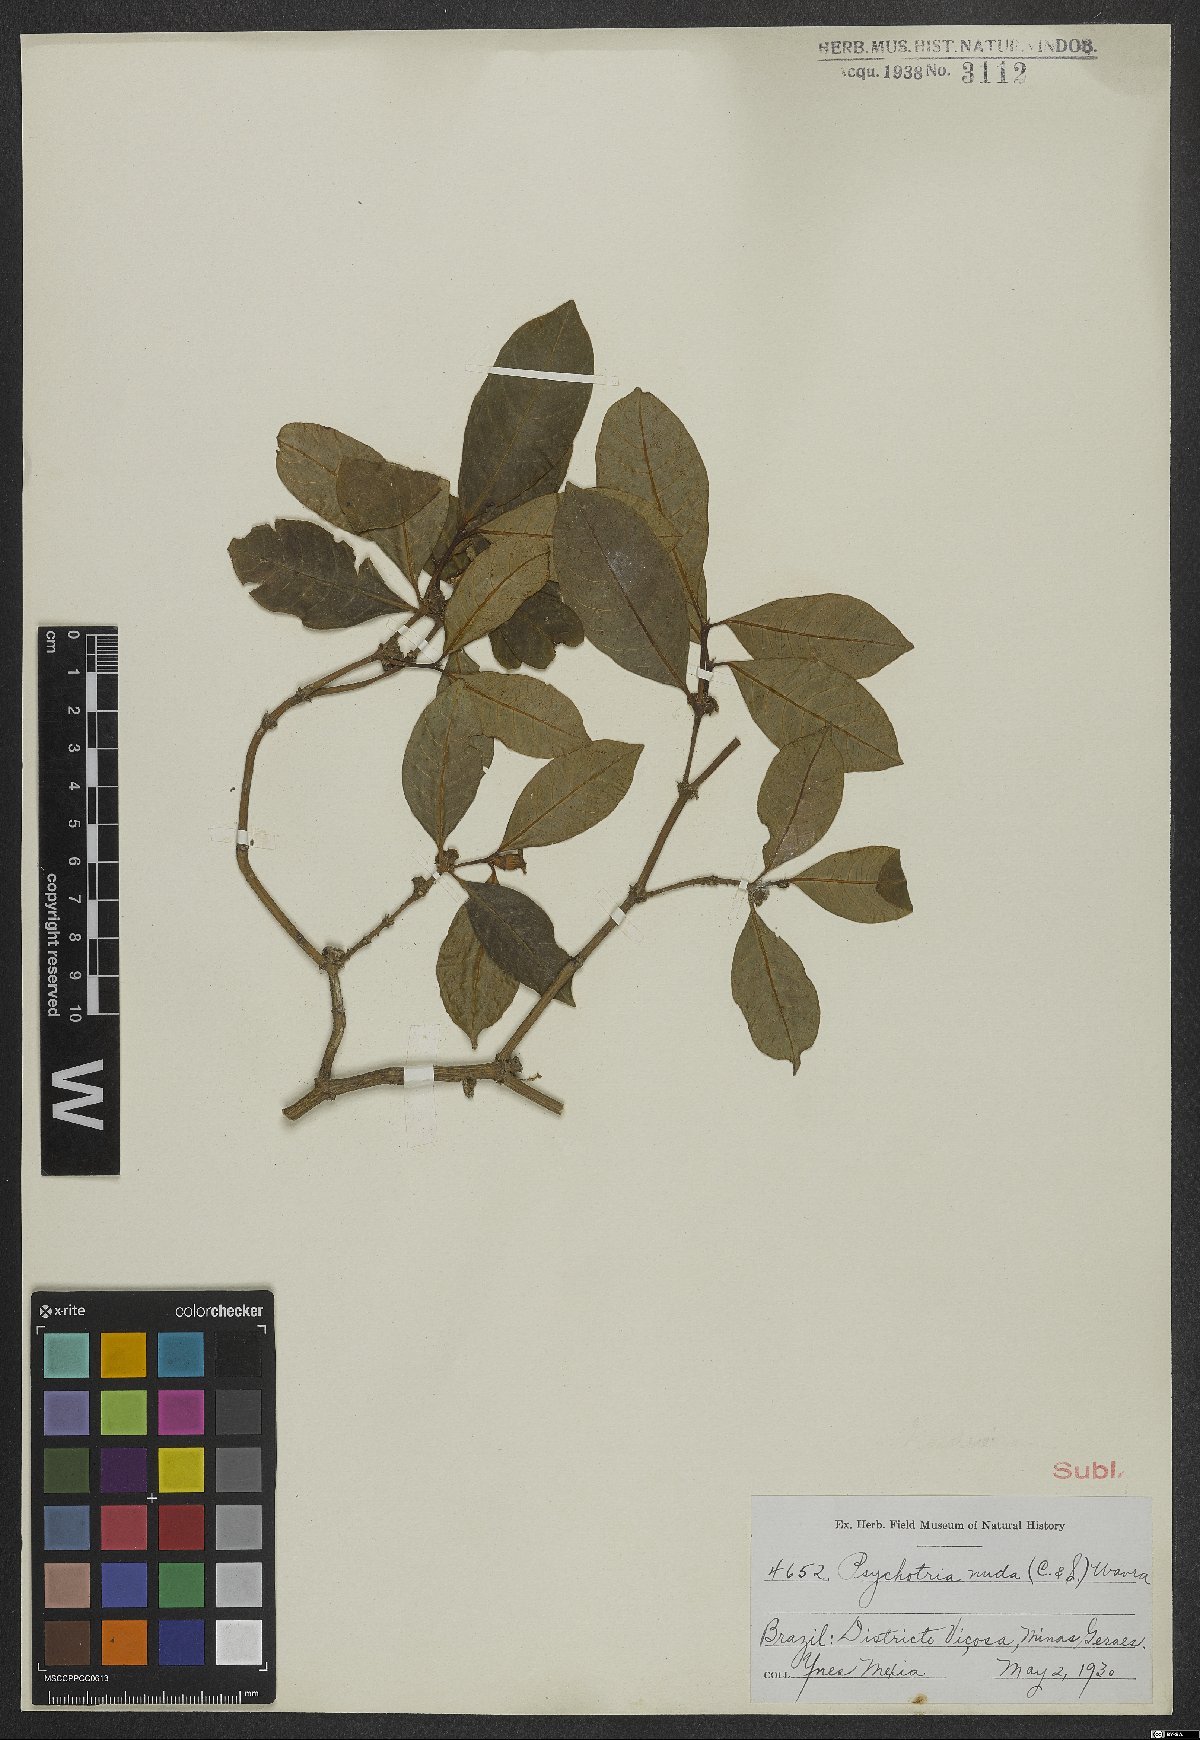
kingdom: Plantae
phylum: Tracheophyta
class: Magnoliopsida
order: Gentianales
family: Rubiaceae
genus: Psychotria
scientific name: Psychotria nuda
